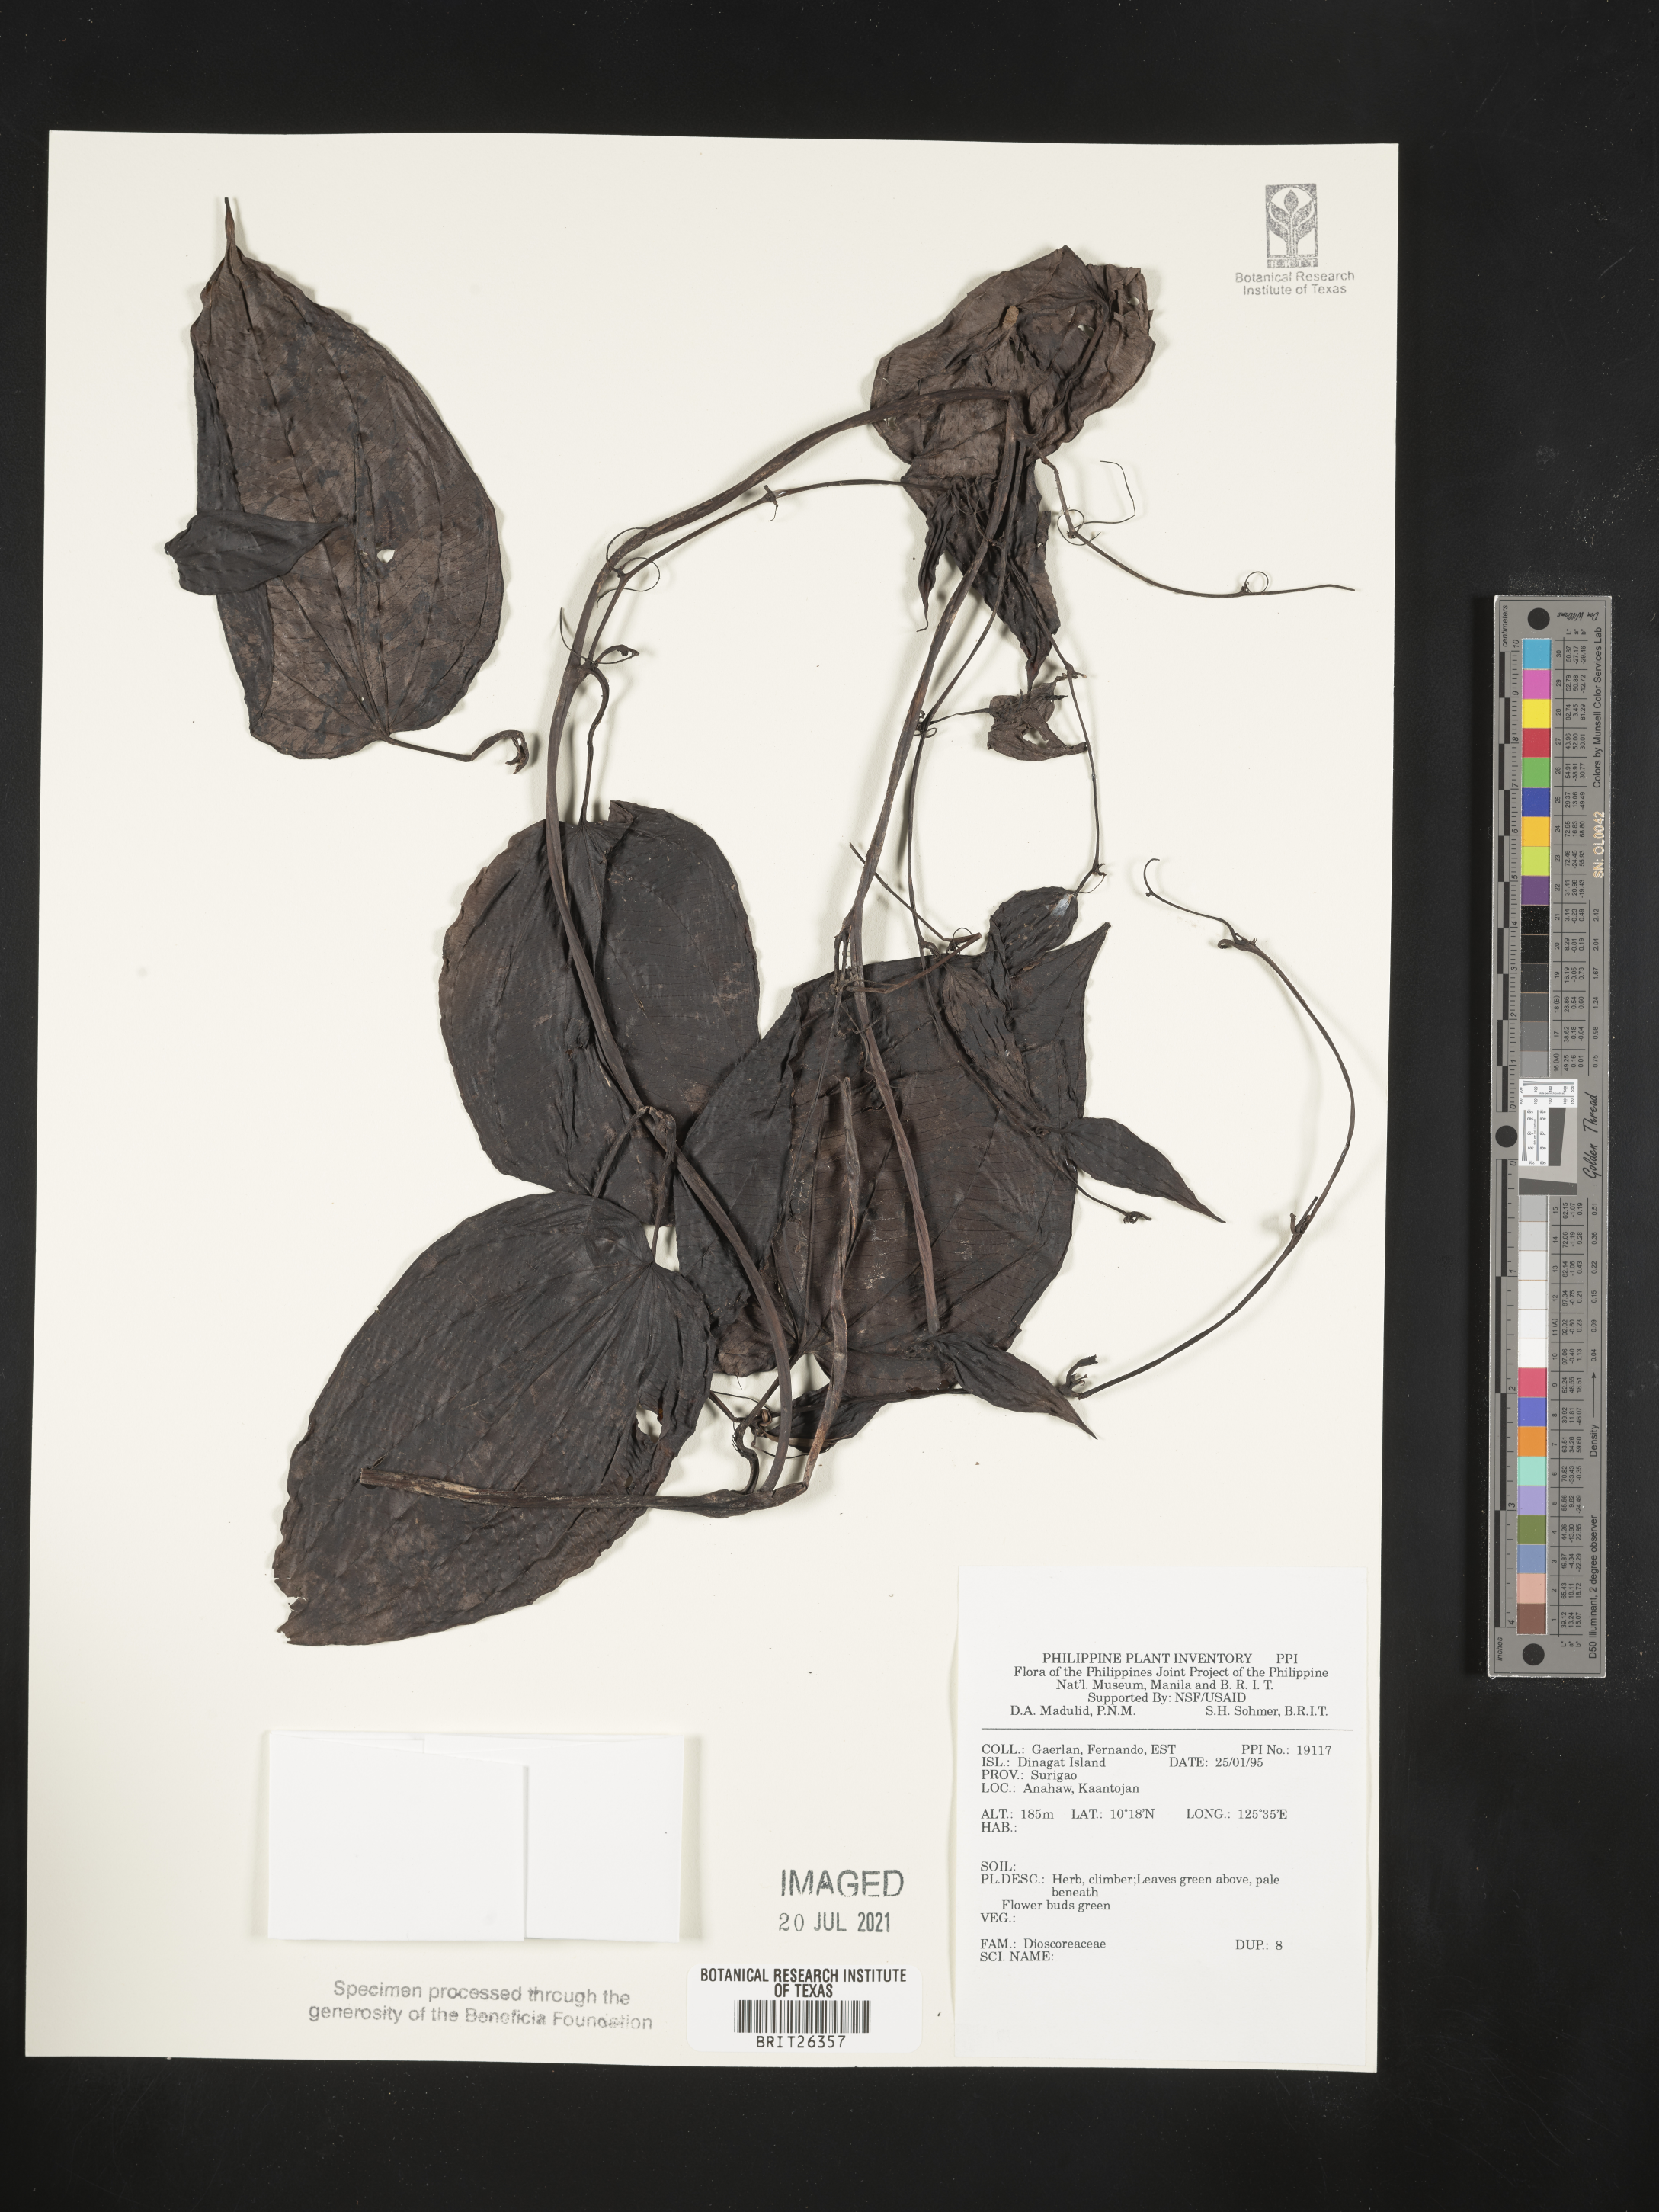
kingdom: Plantae
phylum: Tracheophyta
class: Liliopsida
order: Dioscoreales
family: Dioscoreaceae
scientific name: Dioscoreaceae
